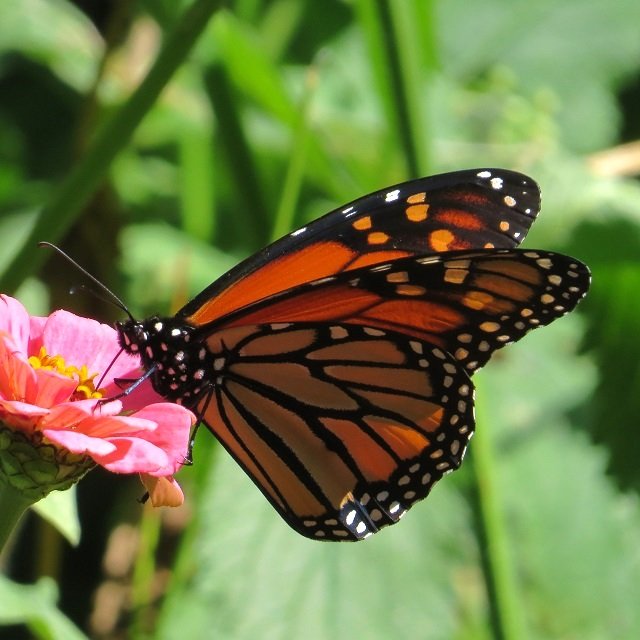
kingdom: Animalia
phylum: Arthropoda
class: Insecta
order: Lepidoptera
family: Nymphalidae
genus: Danaus
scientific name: Danaus plexippus
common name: Monarch
